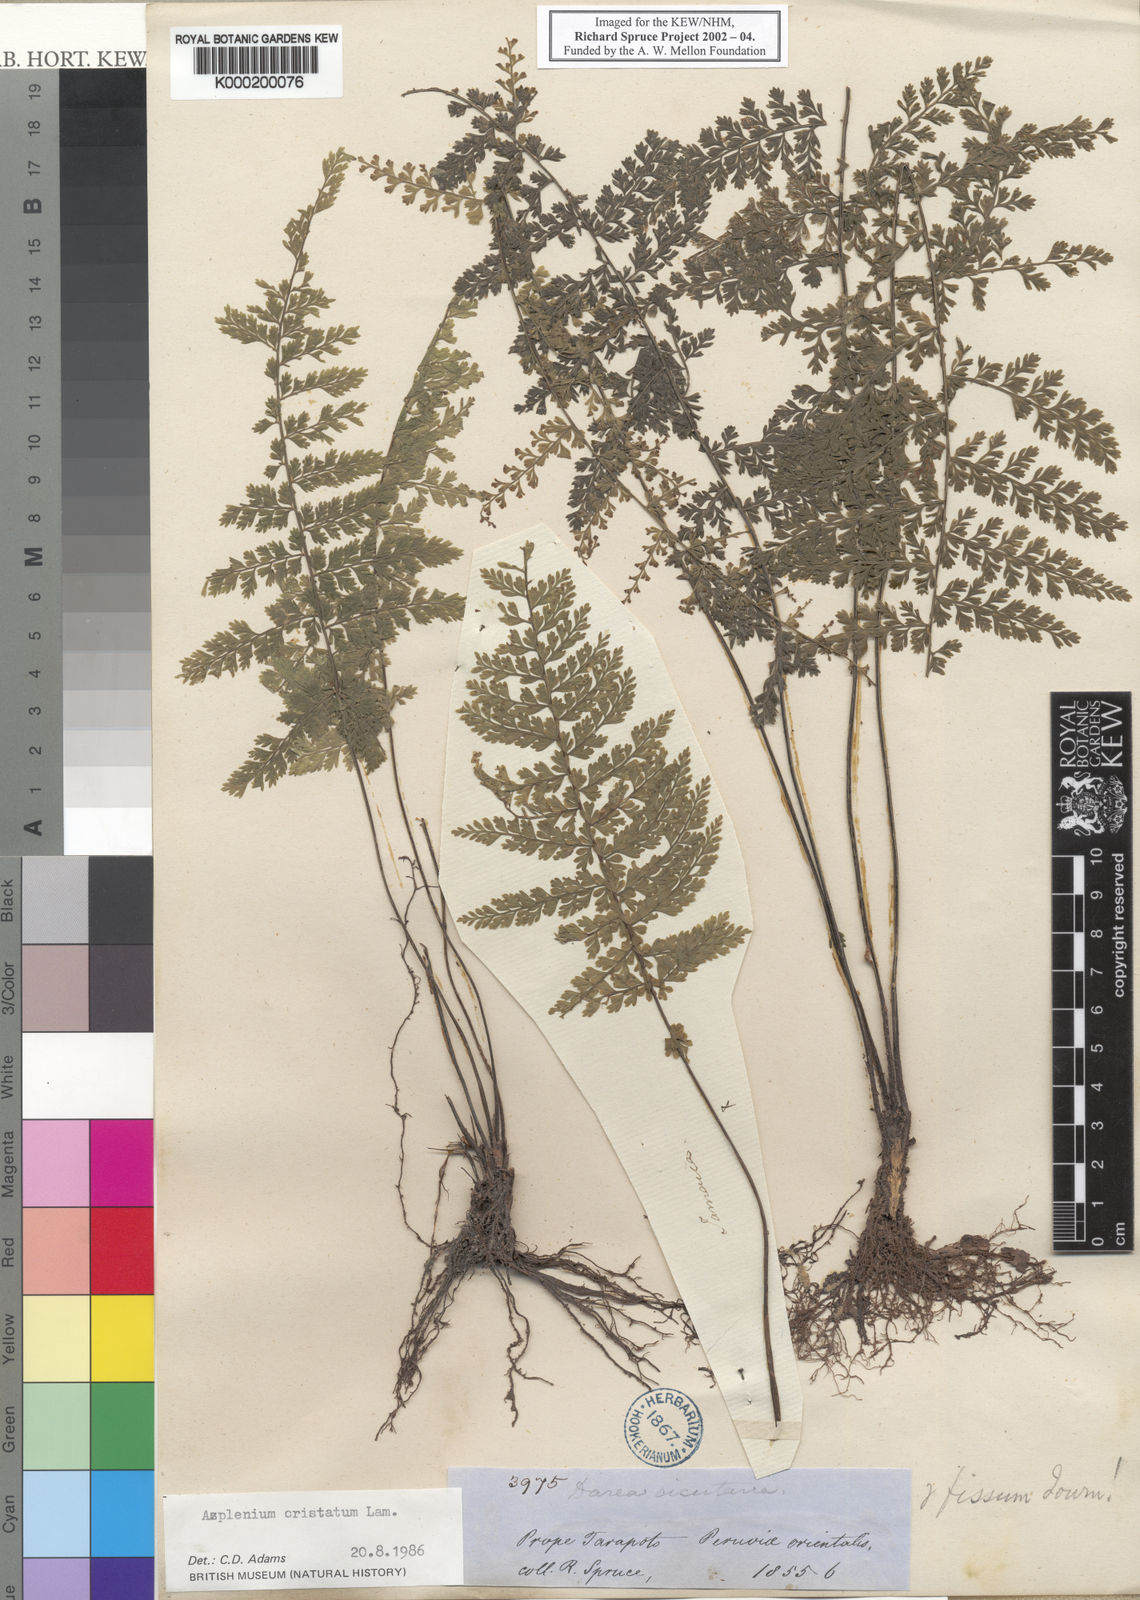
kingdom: Plantae
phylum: Tracheophyta
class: Polypodiopsida
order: Polypodiales
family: Aspleniaceae
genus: Asplenium
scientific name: Asplenium cristatum
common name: Parsley spleenwort
